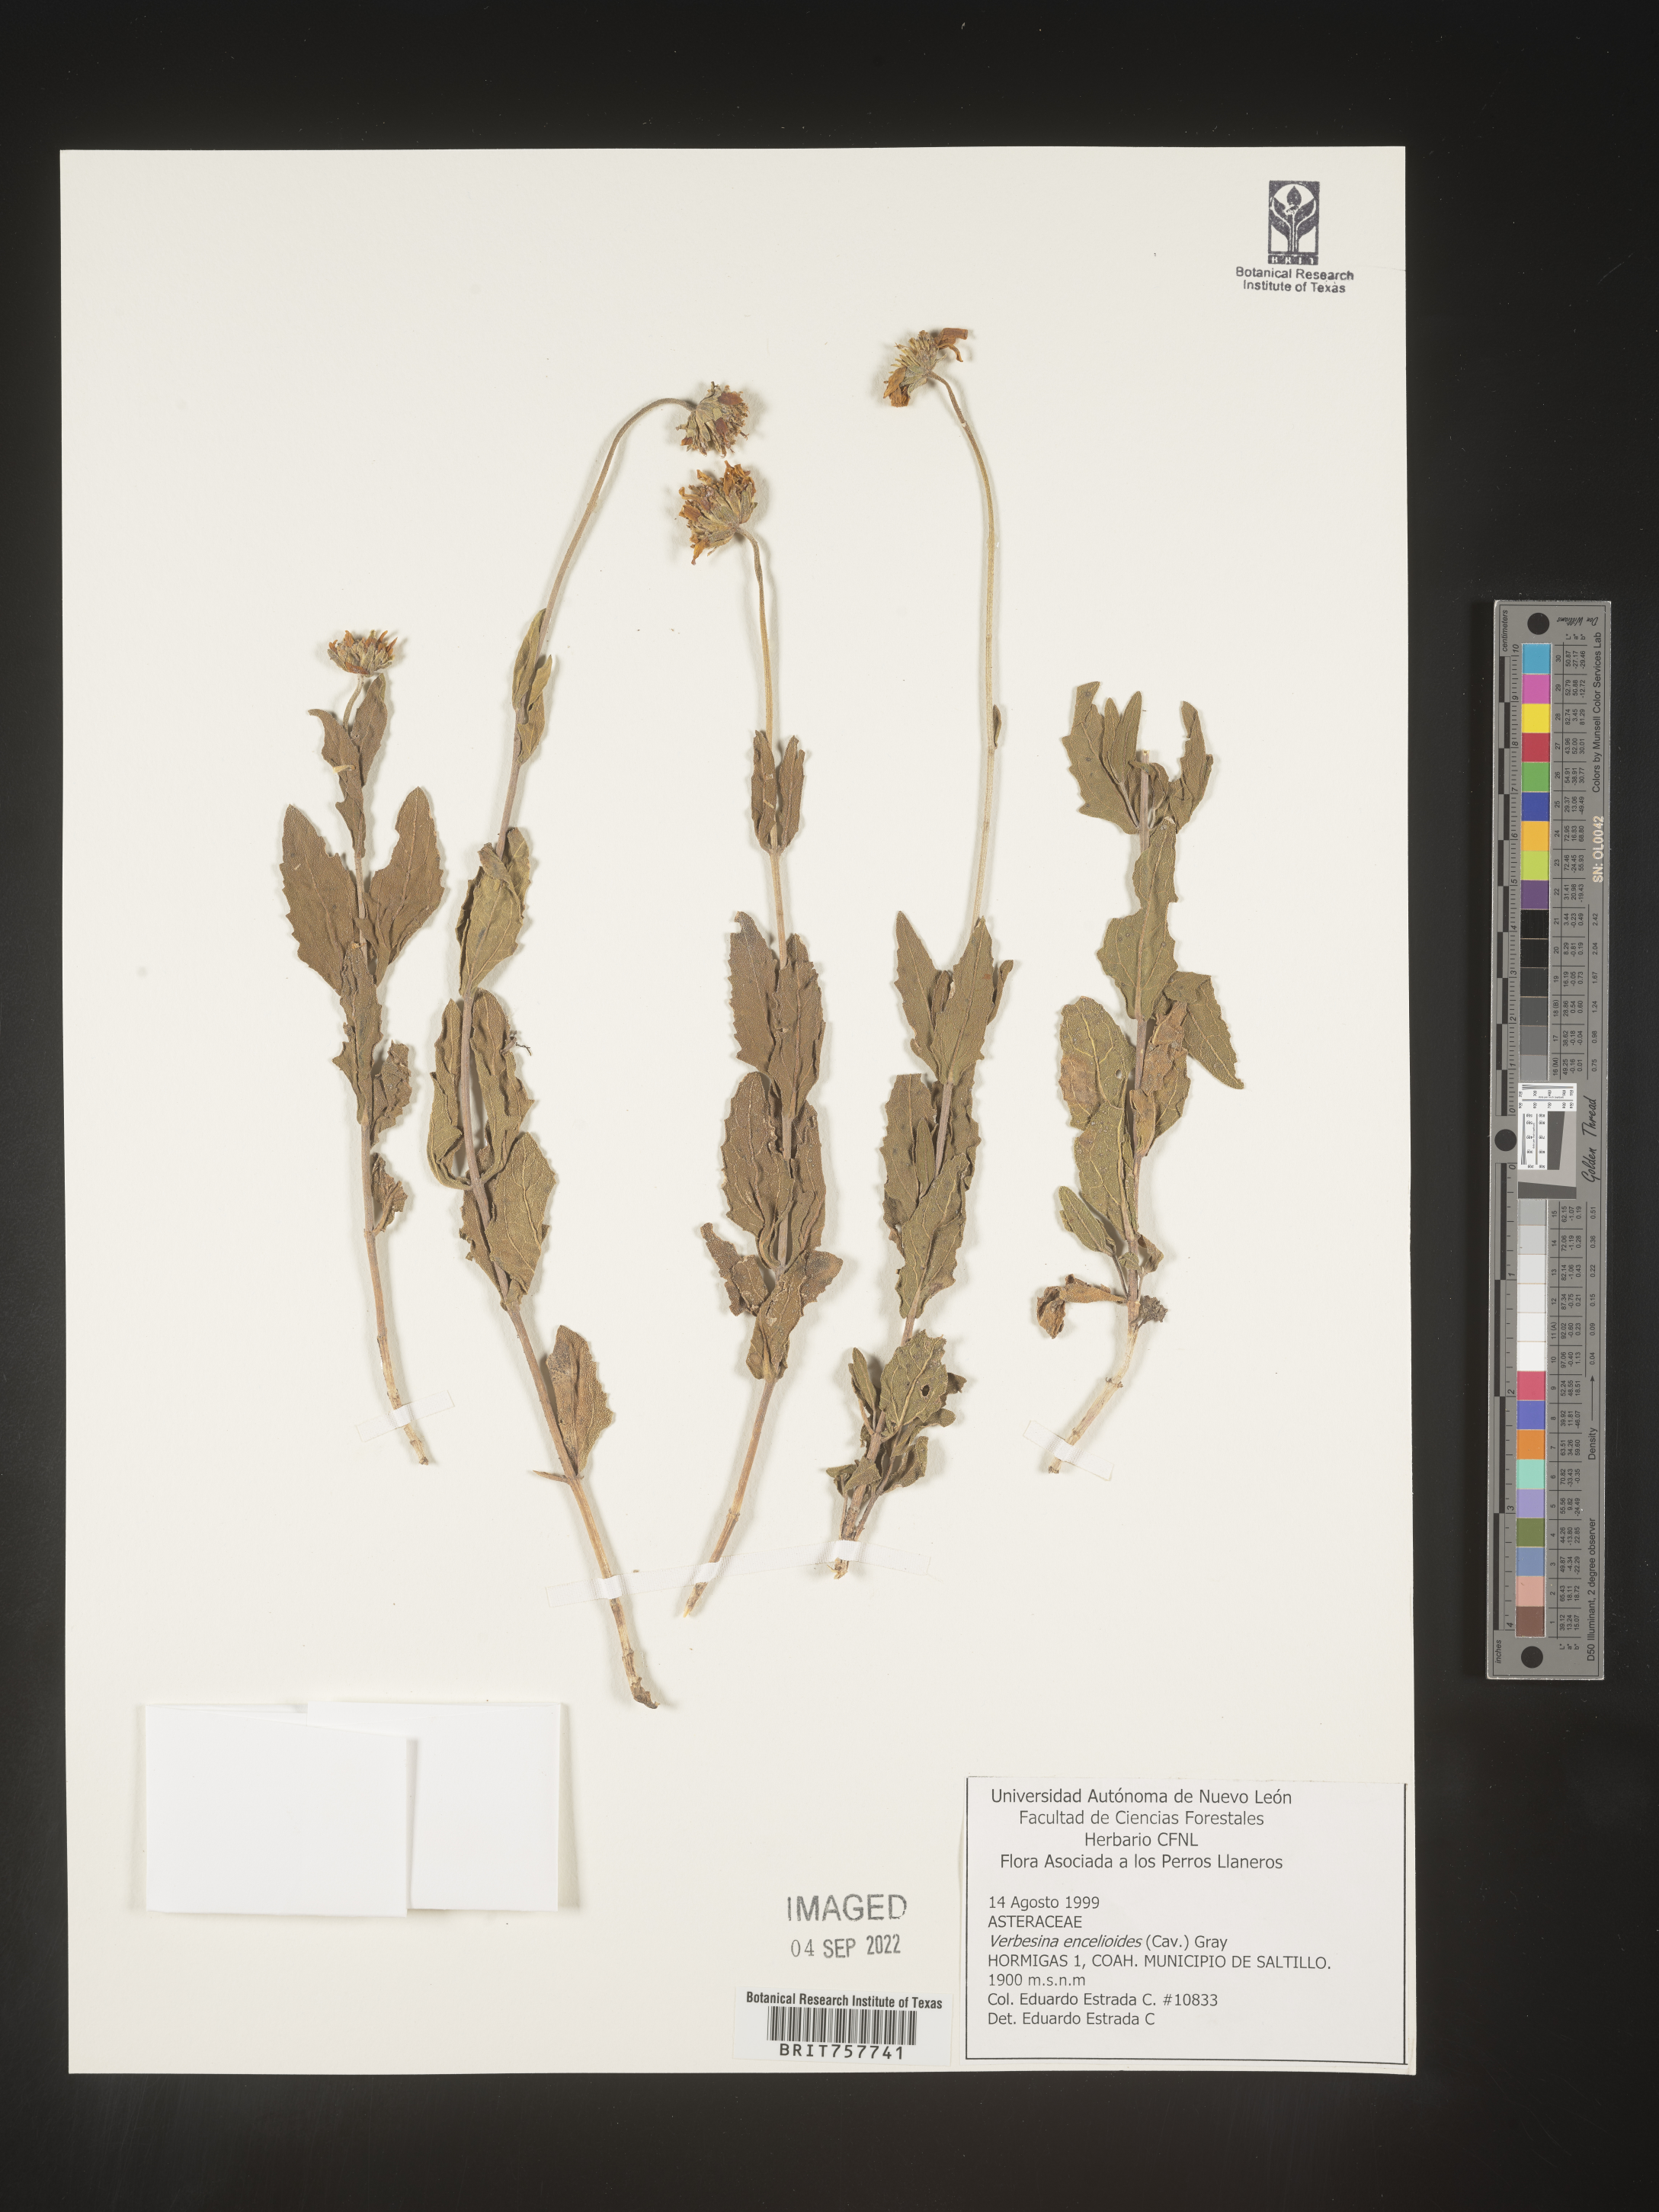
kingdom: Plantae
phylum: Tracheophyta
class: Magnoliopsida
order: Asterales
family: Asteraceae
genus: Verbesina
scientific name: Verbesina
